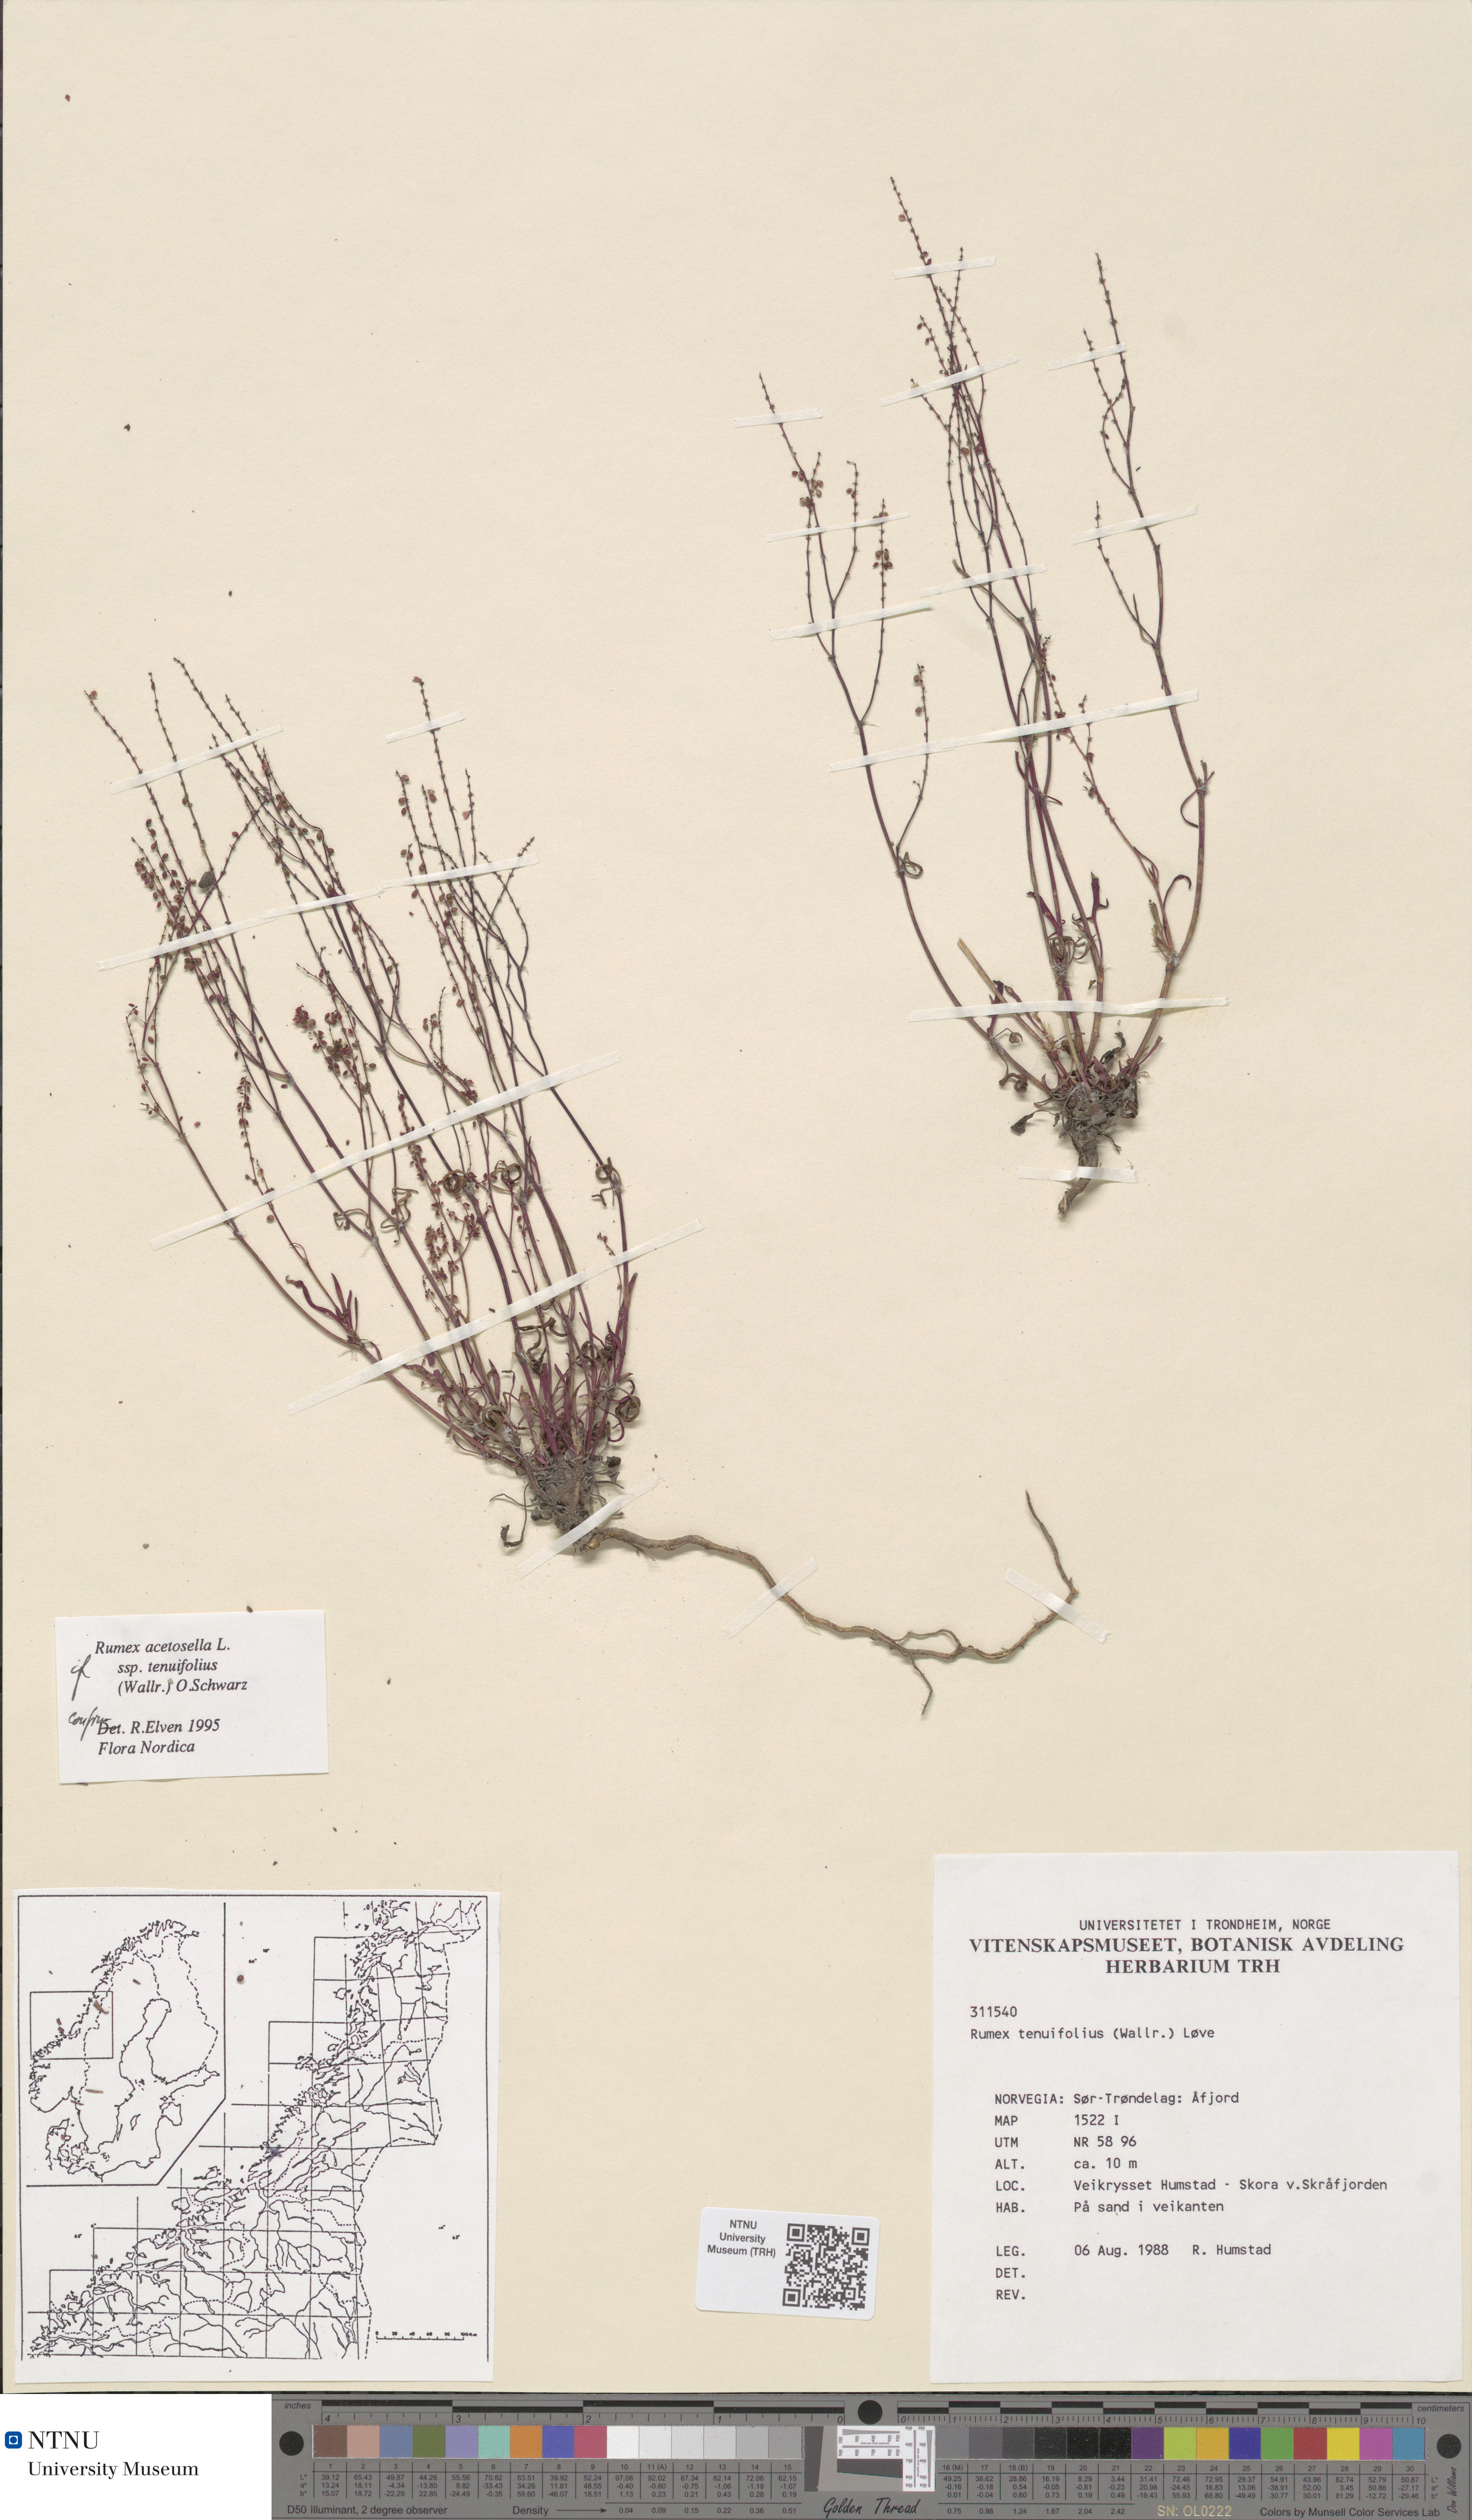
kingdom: Plantae
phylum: Tracheophyta
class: Magnoliopsida
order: Caryophyllales
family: Polygonaceae
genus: Rumex
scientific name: Rumex acetosella
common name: Common sheep sorrel
